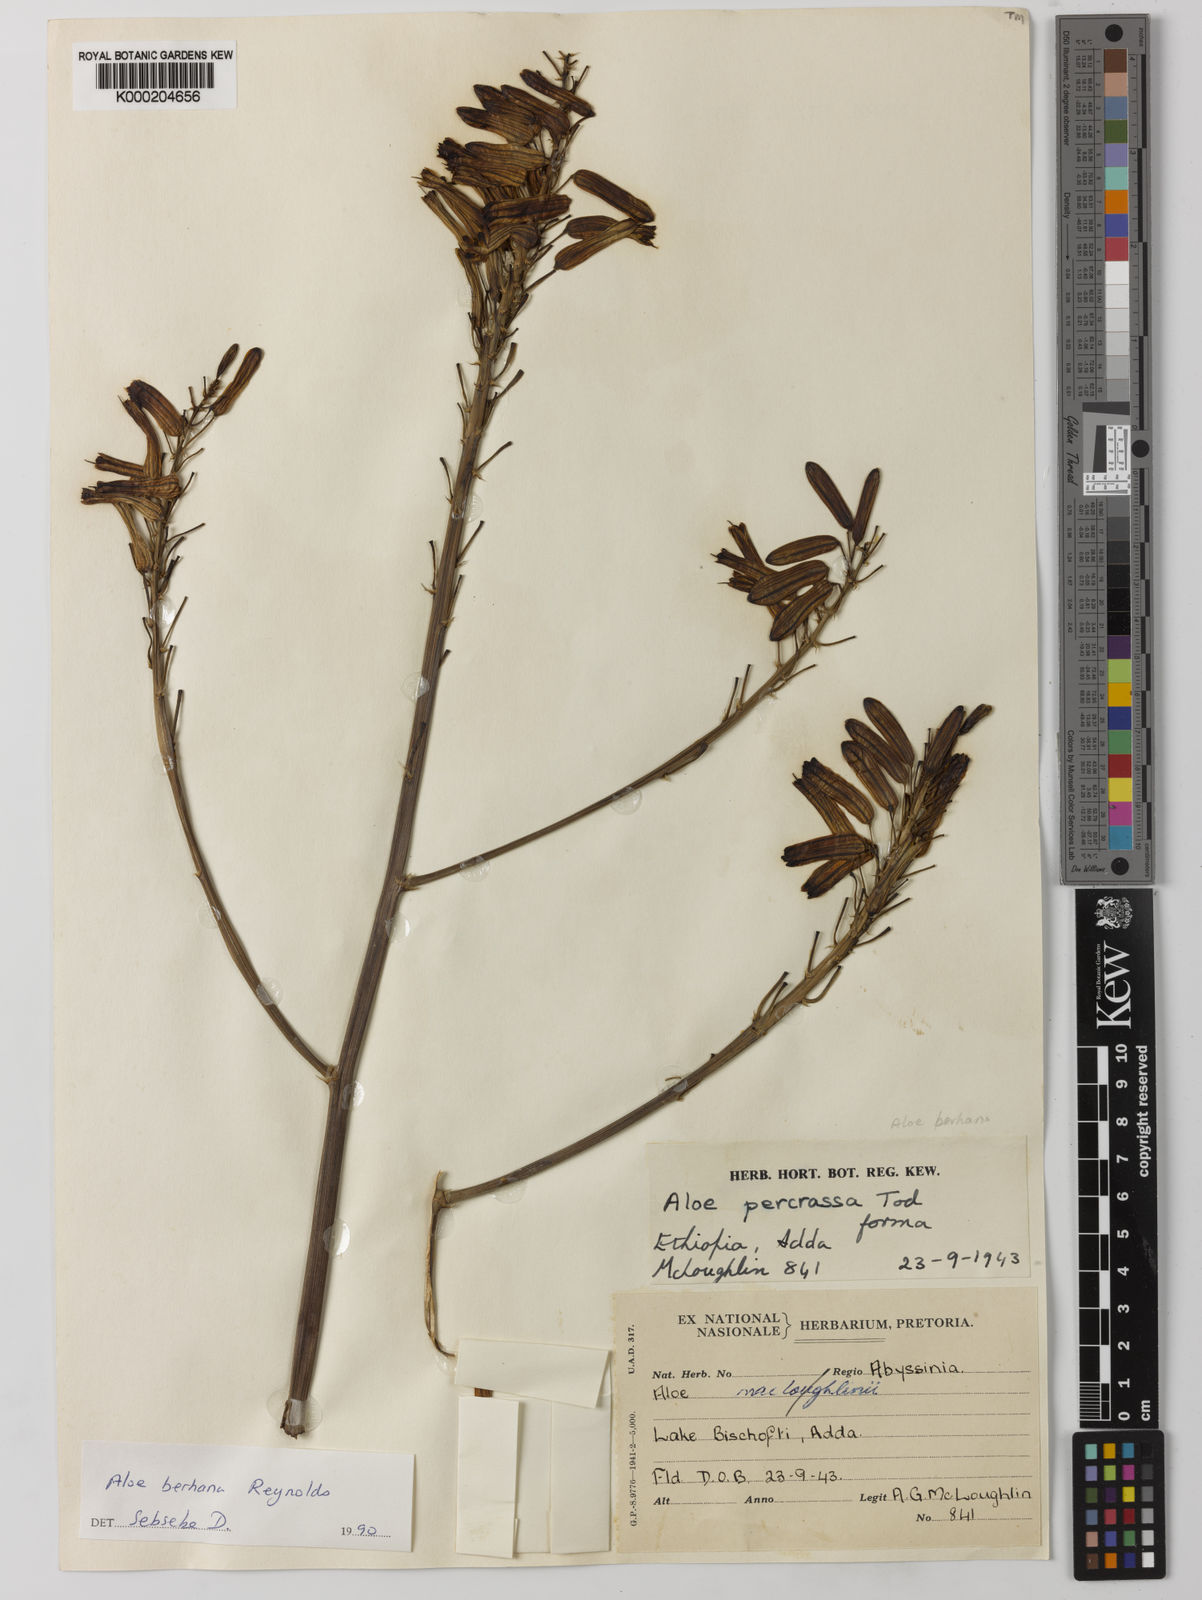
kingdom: Plantae
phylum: Tracheophyta
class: Liliopsida
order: Asparagales
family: Asphodelaceae
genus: Aloe
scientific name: Aloe debrana
